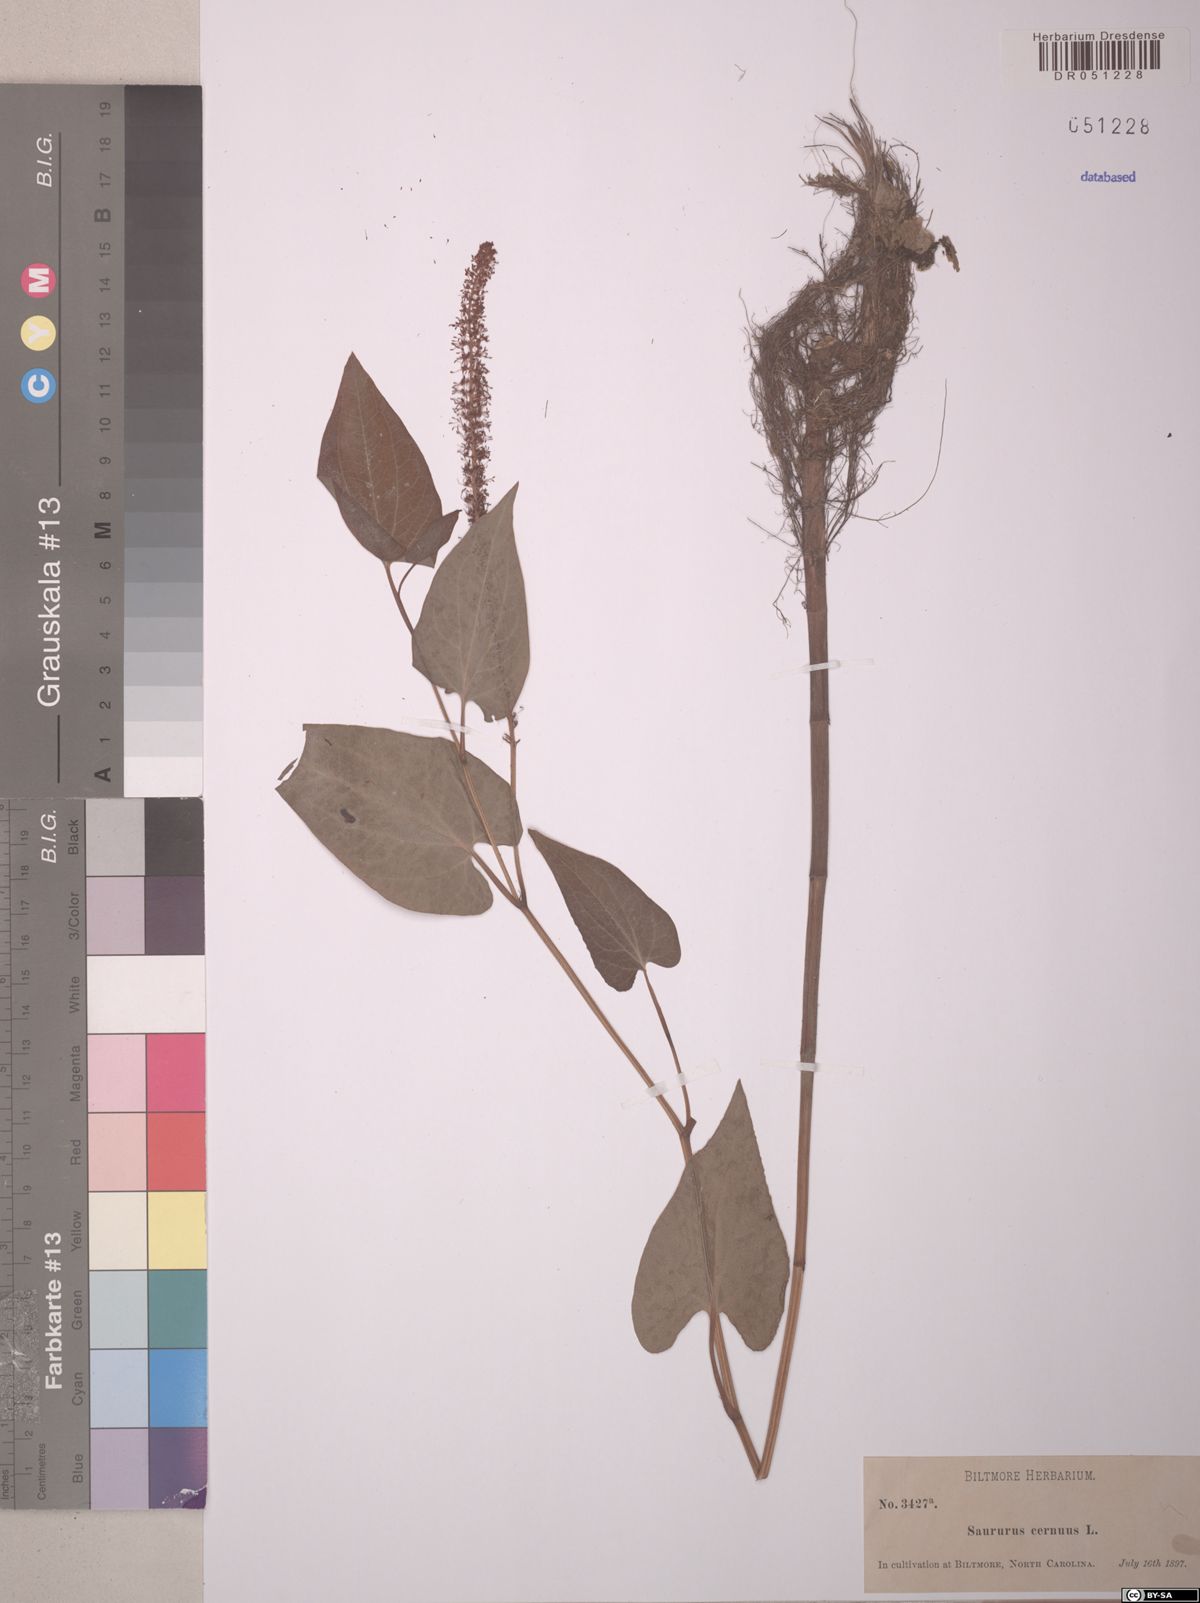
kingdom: Plantae
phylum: Tracheophyta
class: Magnoliopsida
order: Piperales
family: Saururaceae
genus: Saururus
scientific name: Saururus cernuus
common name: Lizard's-tail
